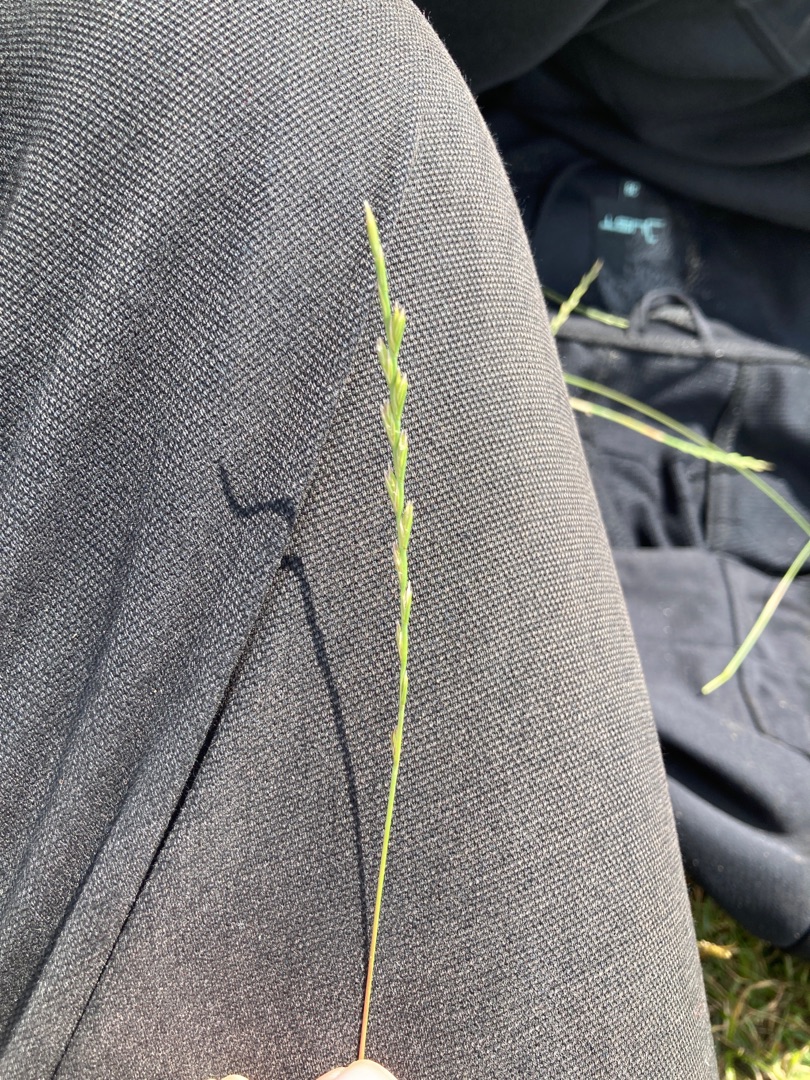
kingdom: Plantae
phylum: Tracheophyta
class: Liliopsida
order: Poales
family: Poaceae
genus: Lolium
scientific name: Lolium perenne
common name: Almindelig rajgræs
